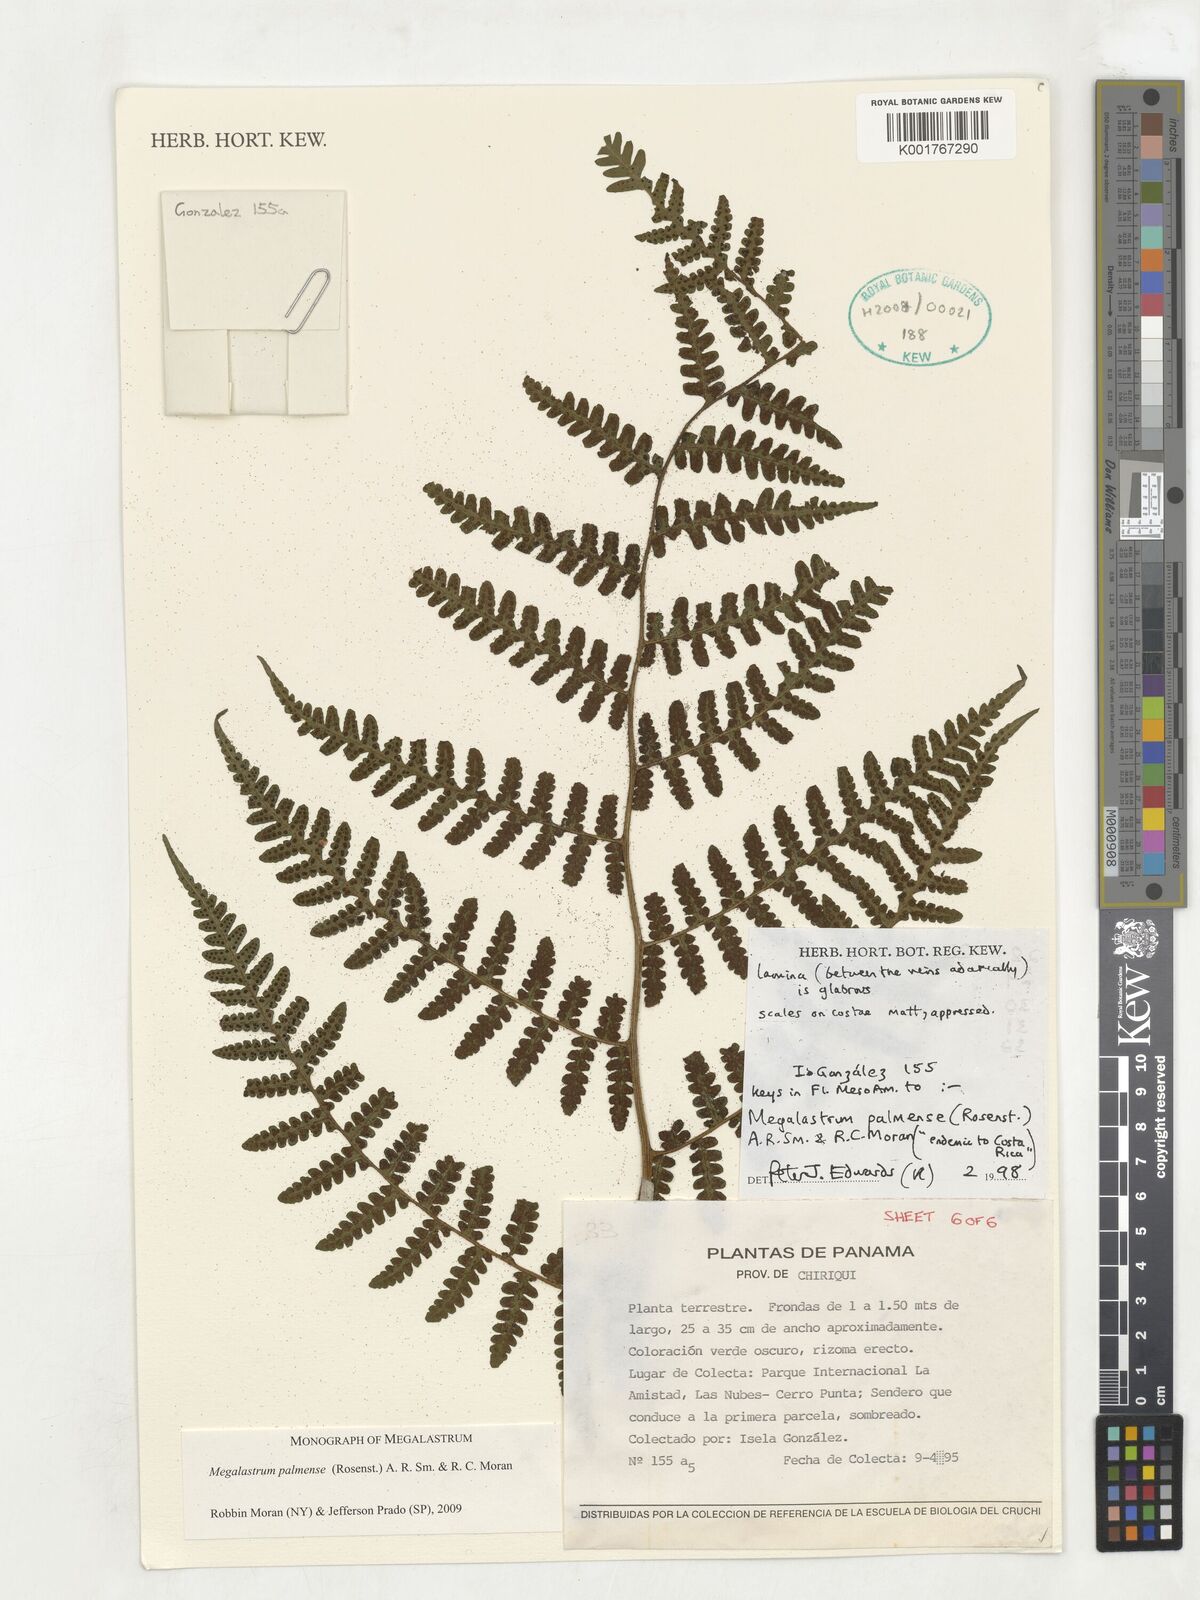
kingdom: Plantae
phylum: Tracheophyta
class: Polypodiopsida
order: Polypodiales
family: Dryopteridaceae
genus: Megalastrum
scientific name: Megalastrum palmense
